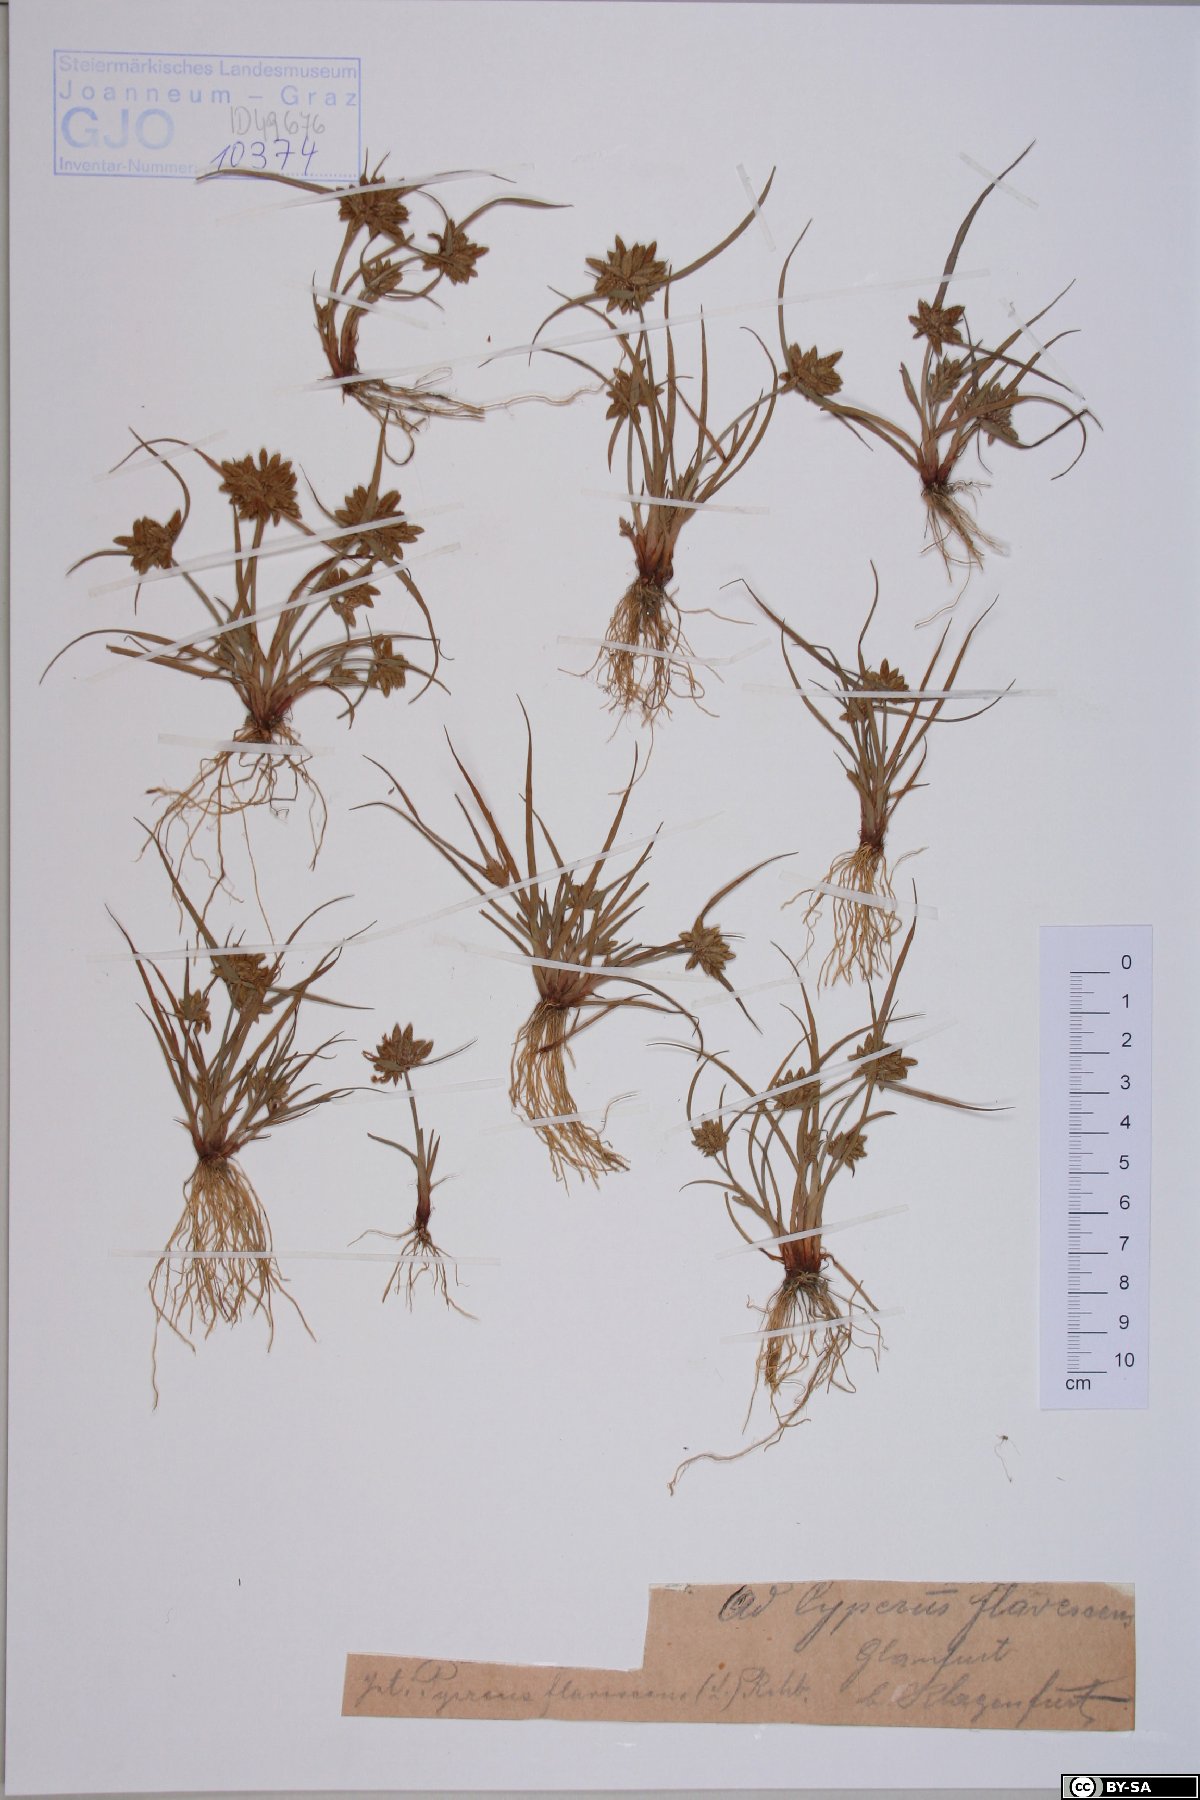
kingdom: Plantae
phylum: Tracheophyta
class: Liliopsida
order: Poales
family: Cyperaceae
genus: Cyperus
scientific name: Cyperus flavescens
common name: Yellow galingale
